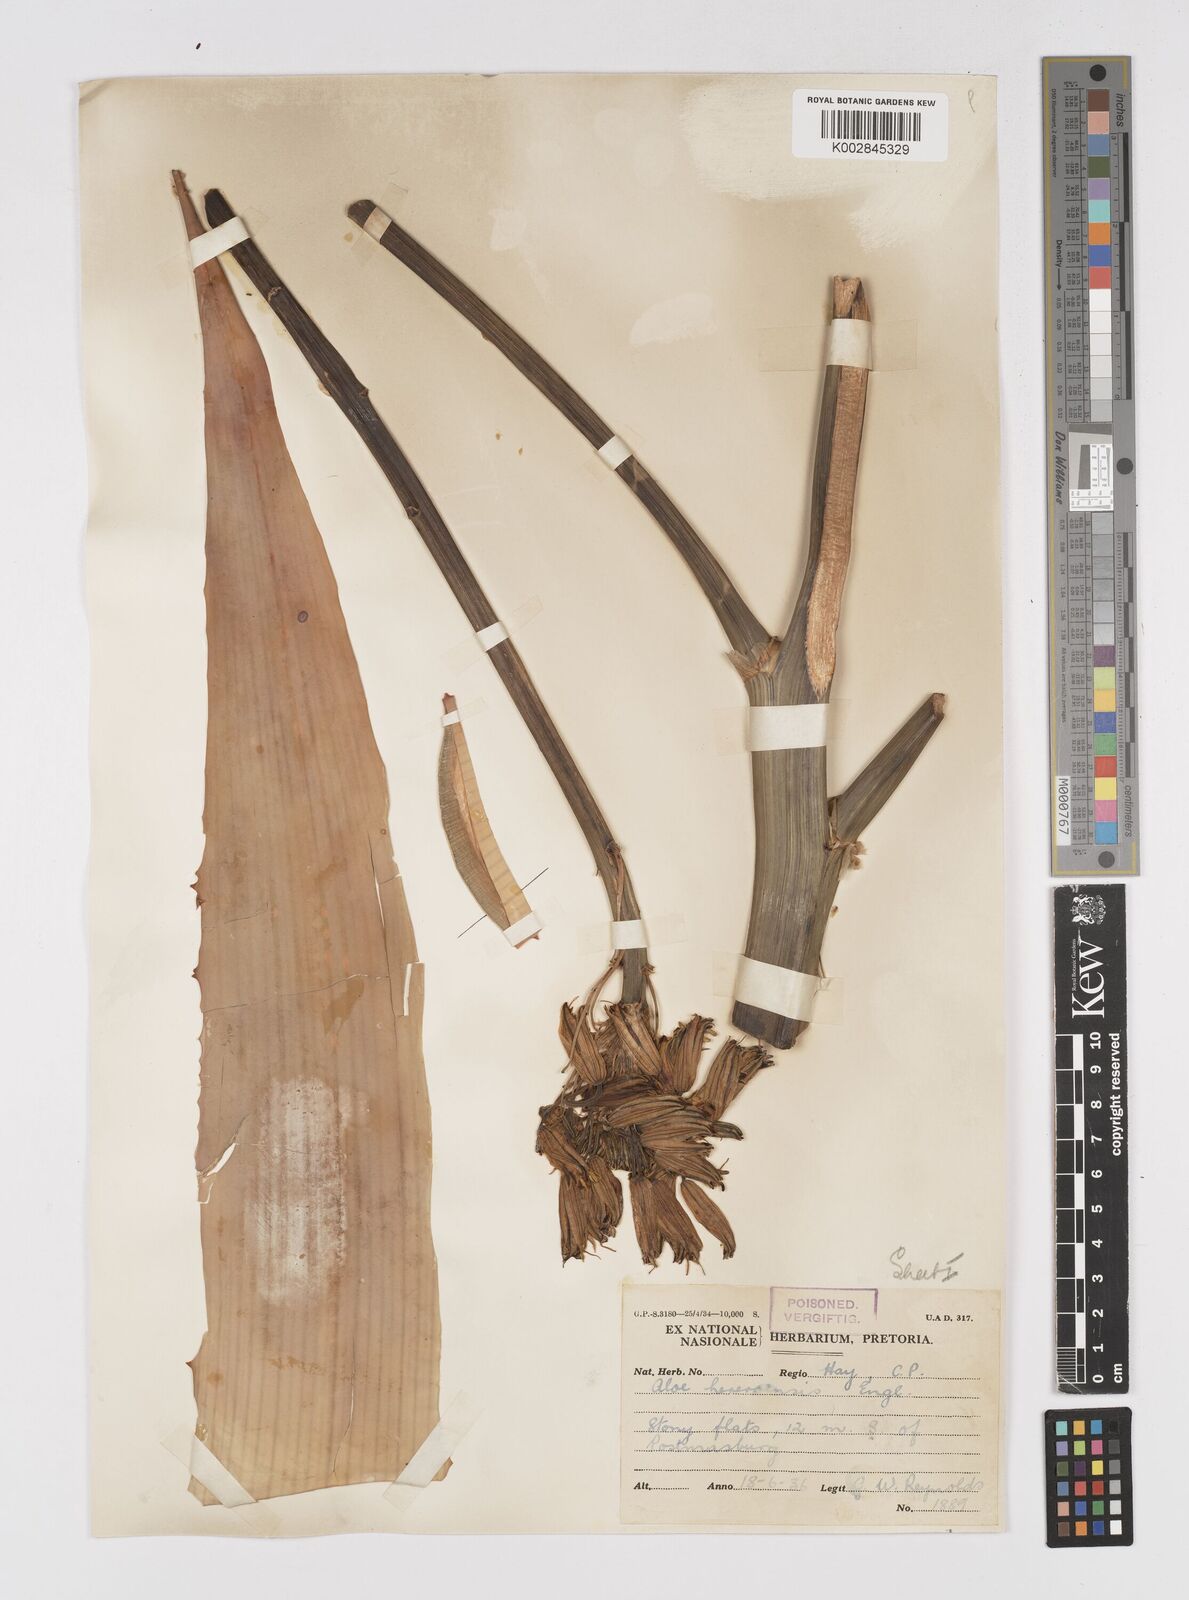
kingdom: Plantae
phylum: Tracheophyta
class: Liliopsida
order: Asparagales
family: Asphodelaceae
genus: Aloe
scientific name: Aloe hereroensis
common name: Herero aloe
